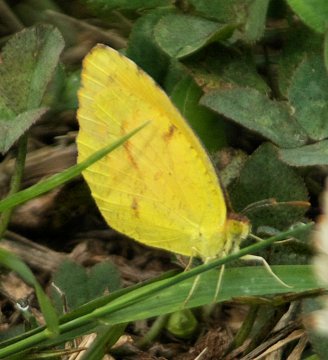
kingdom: Animalia
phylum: Arthropoda
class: Insecta
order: Lepidoptera
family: Pieridae
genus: Abaeis
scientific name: Abaeis nicippe
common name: Sleepy Orange
